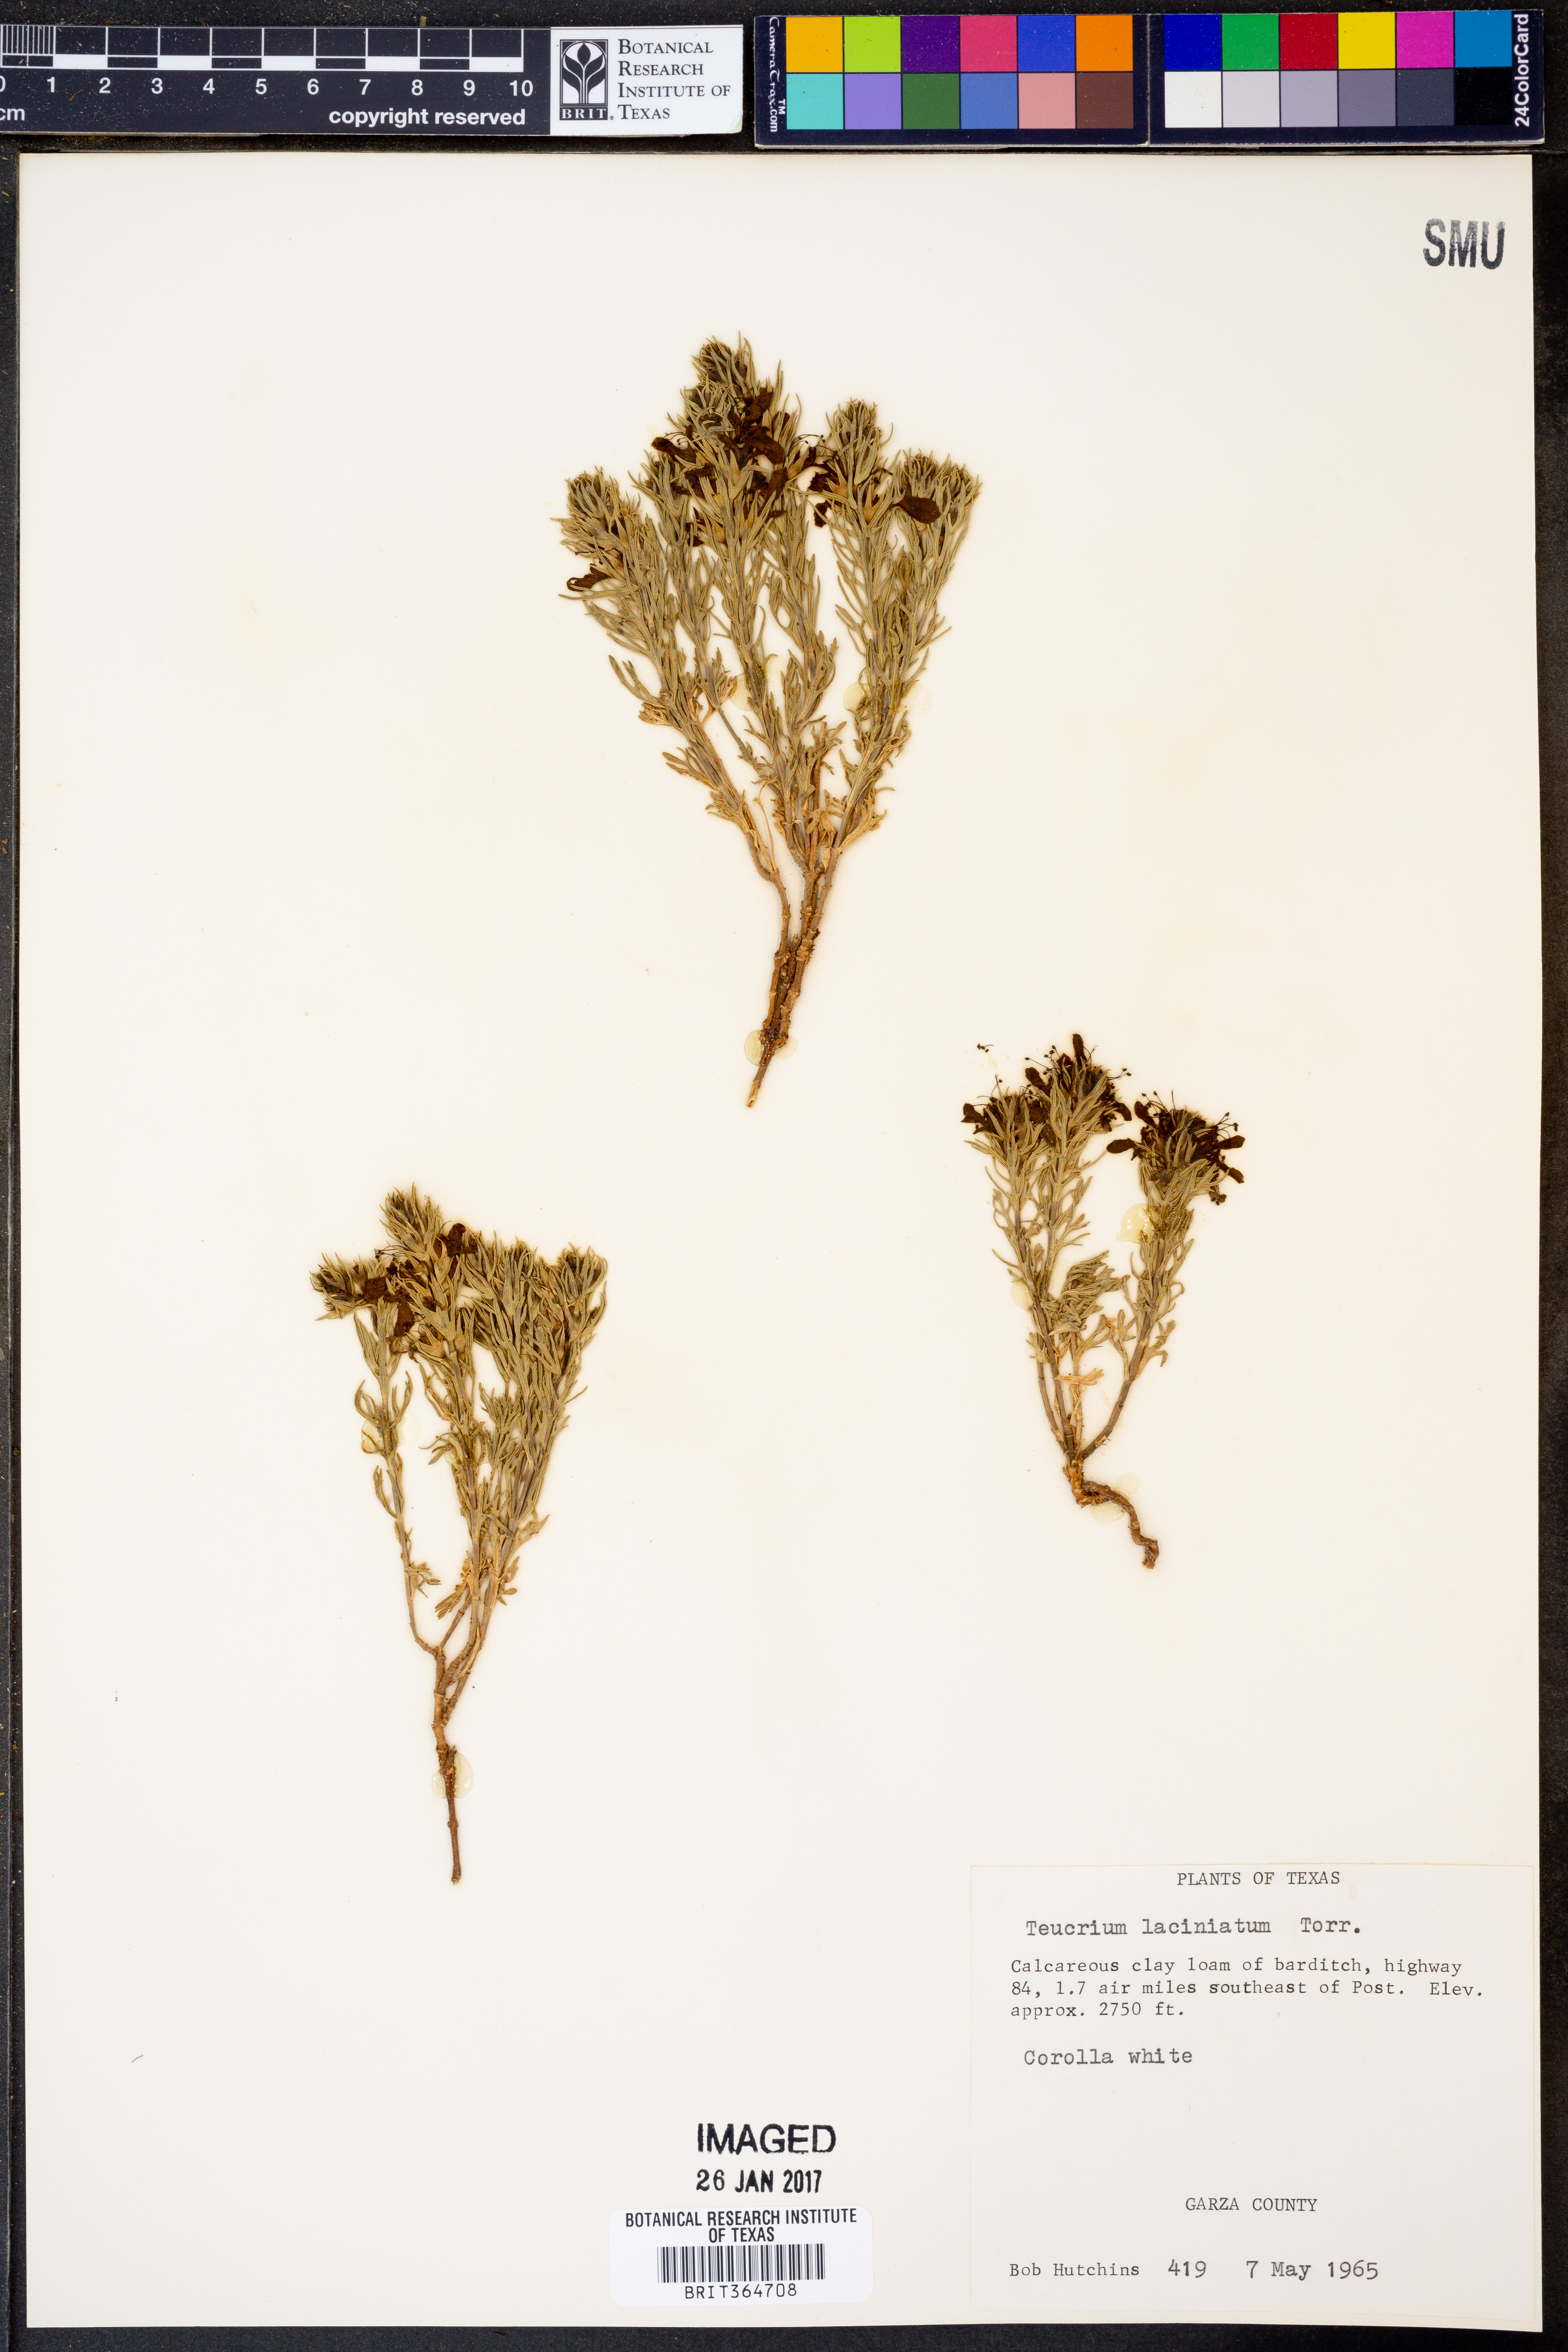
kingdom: Plantae
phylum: Tracheophyta
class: Magnoliopsida
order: Lamiales
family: Lamiaceae
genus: Teucrium
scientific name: Teucrium laciniatum
